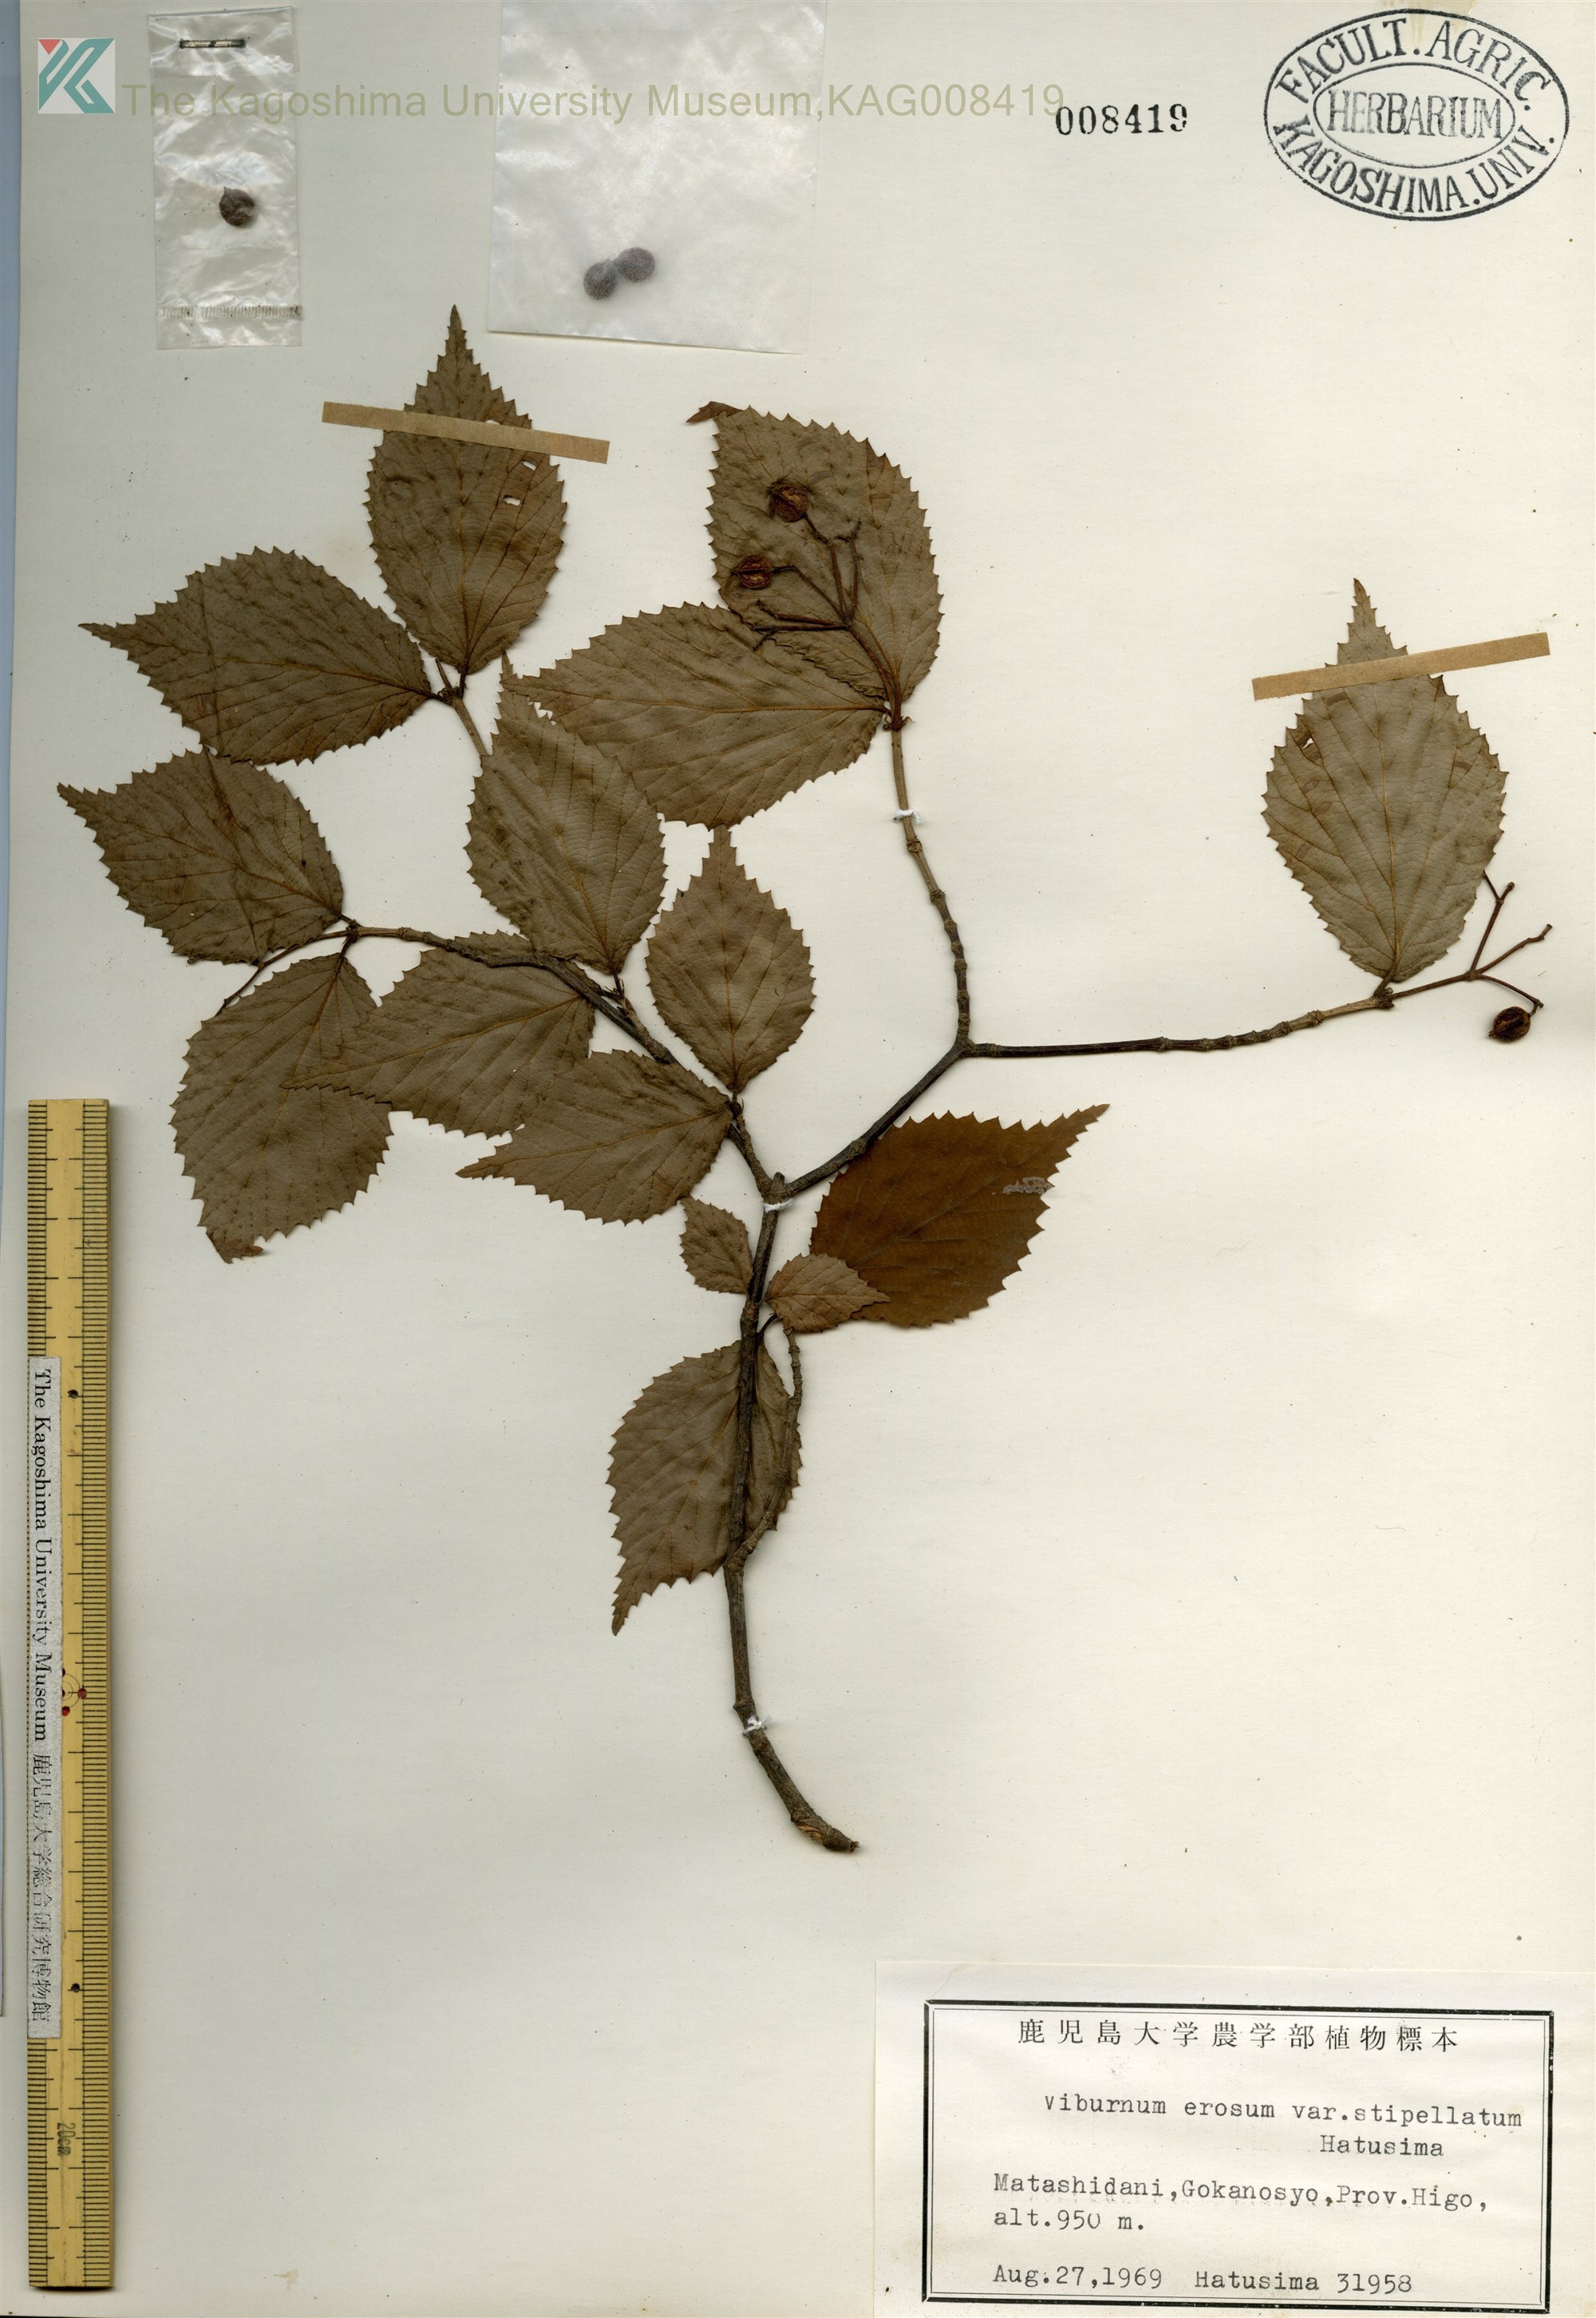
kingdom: Plantae
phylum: Tracheophyta
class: Magnoliopsida
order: Dipsacales
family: Viburnaceae
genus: Viburnum
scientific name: Viburnum erosum
